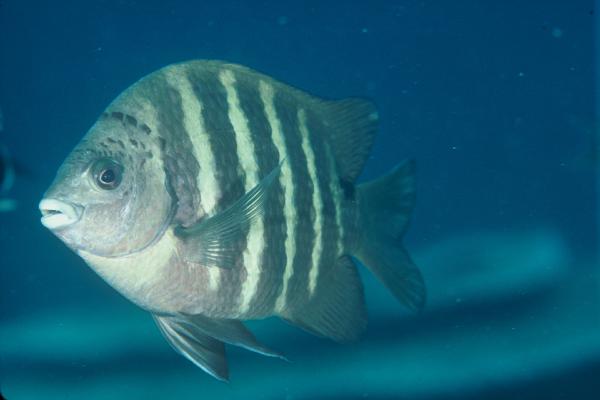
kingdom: Animalia
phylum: Chordata
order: Perciformes
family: Pomacentridae
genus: Abudefduf
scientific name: Abudefduf sordidus
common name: Blackspot sergeant
